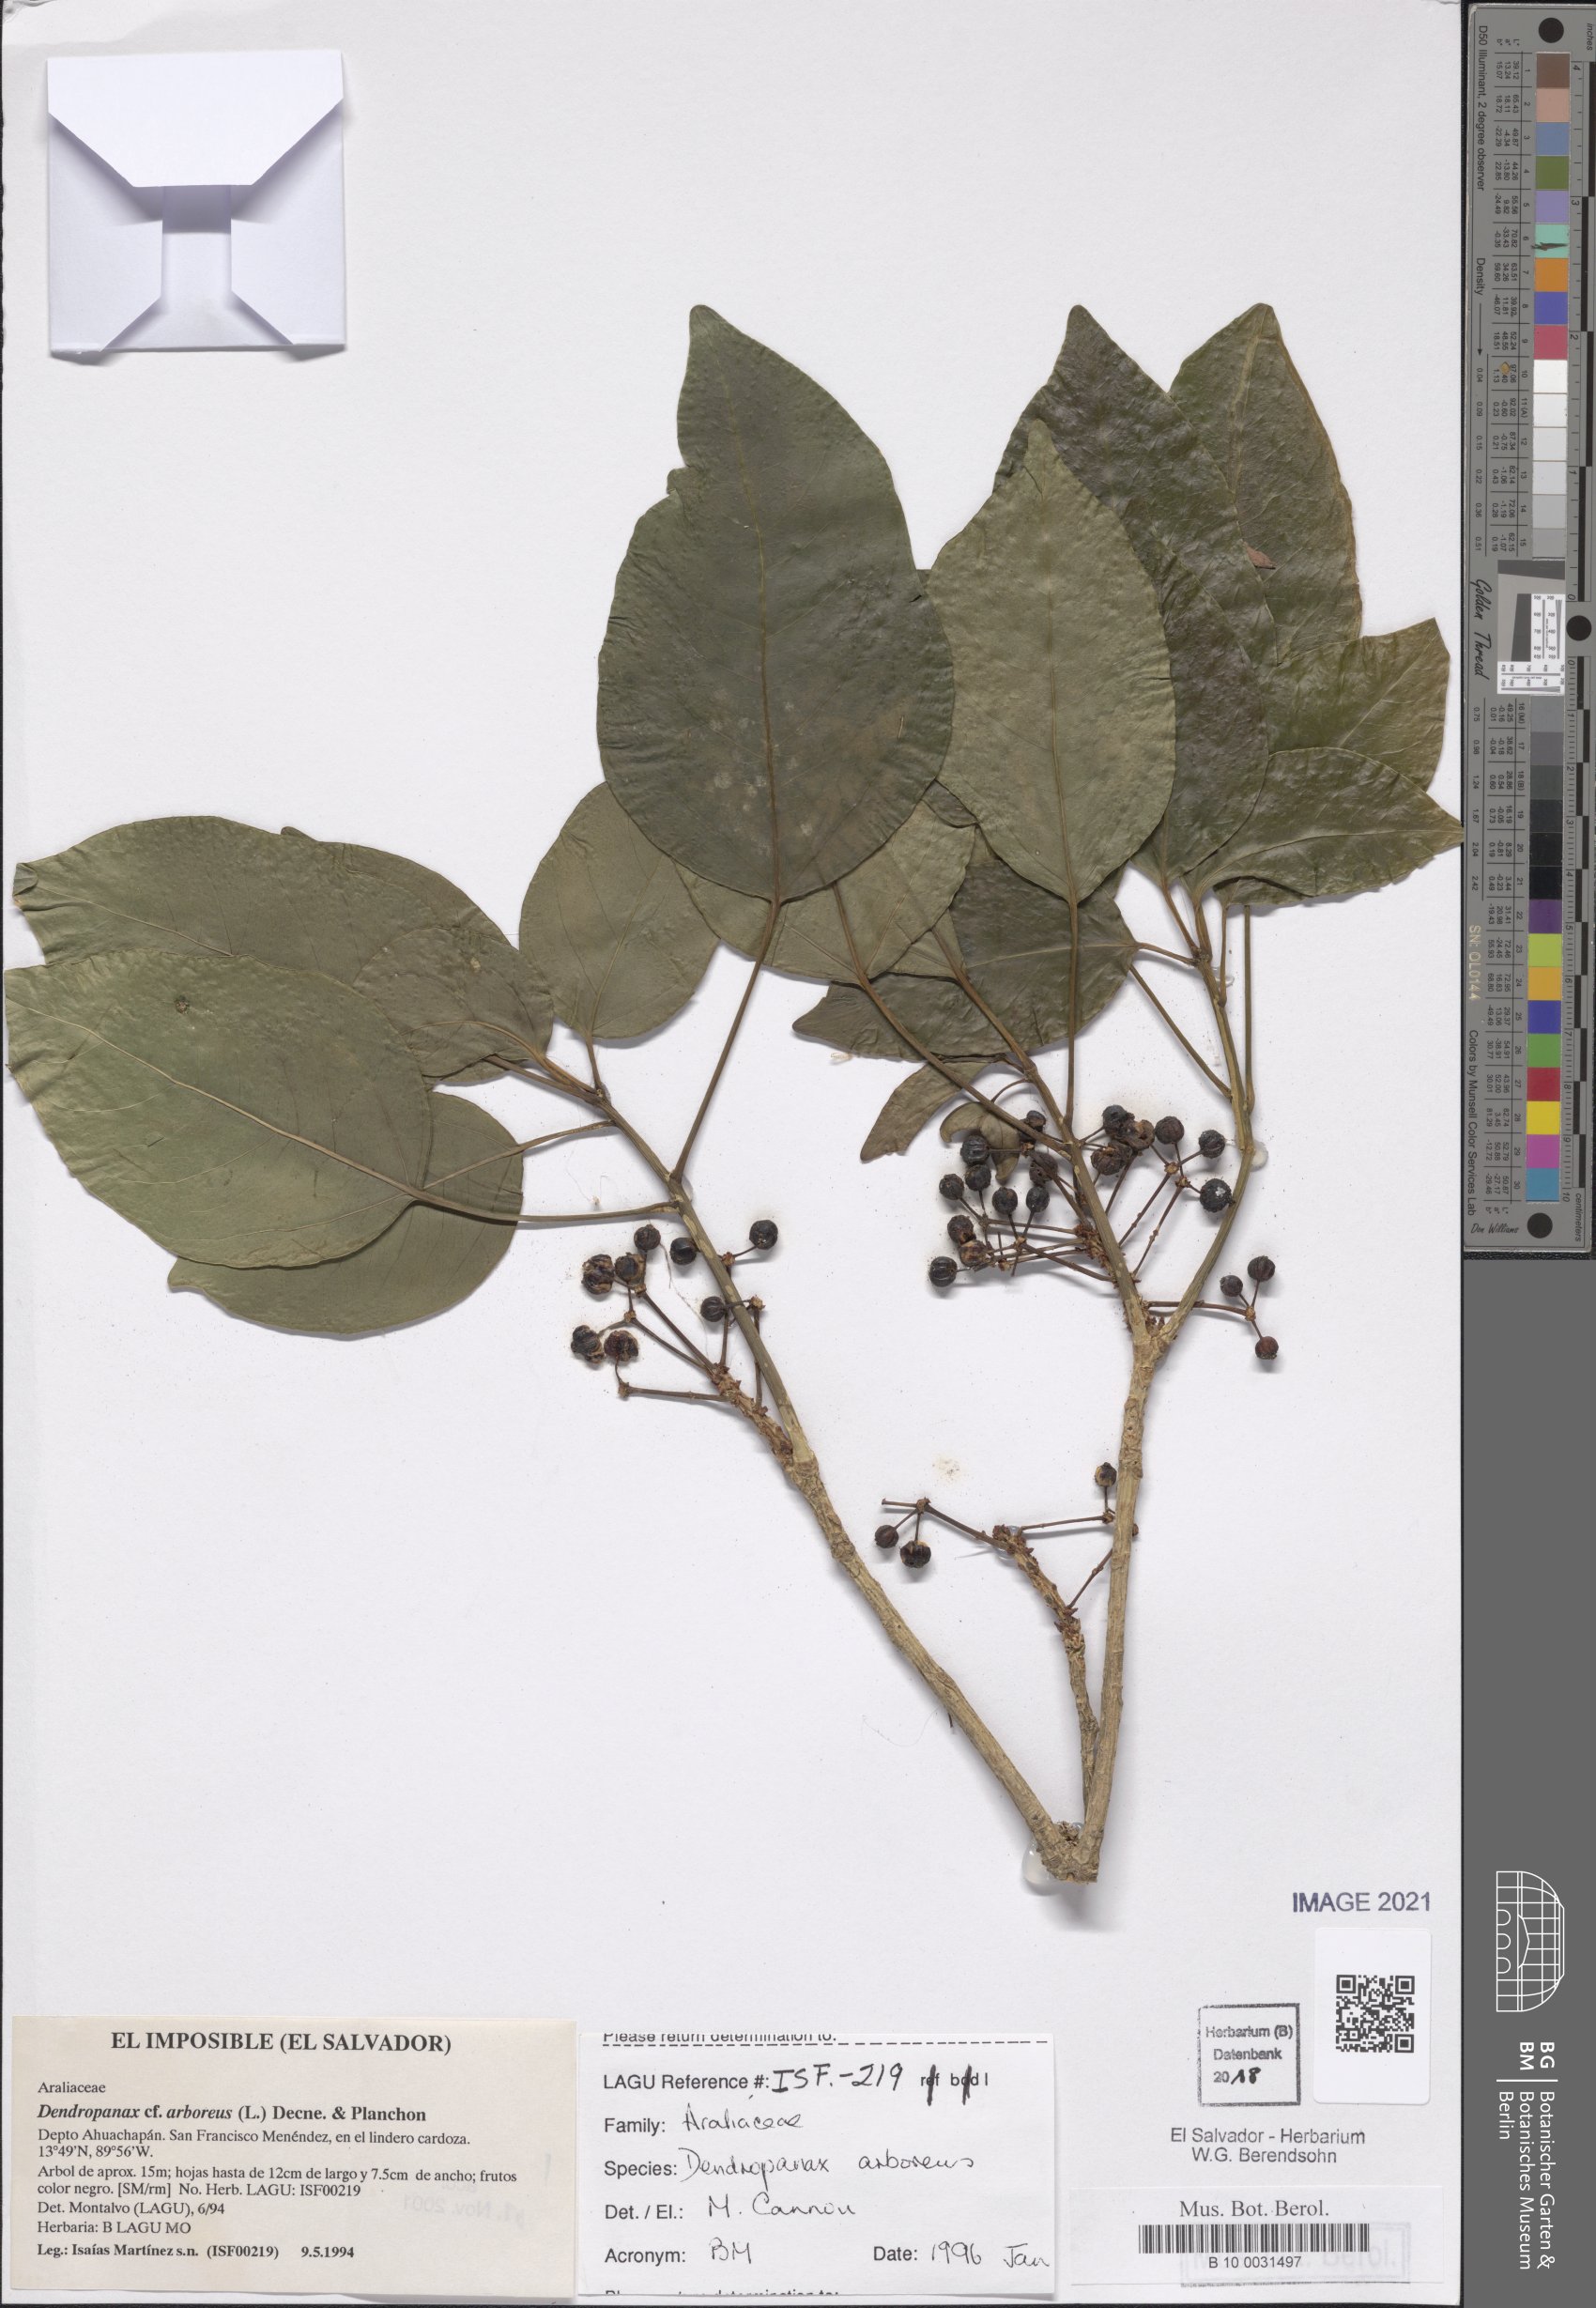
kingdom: Plantae
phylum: Tracheophyta
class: Magnoliopsida
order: Apiales
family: Araliaceae
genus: Dendropanax
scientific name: Dendropanax arboreus
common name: Potato-wood
